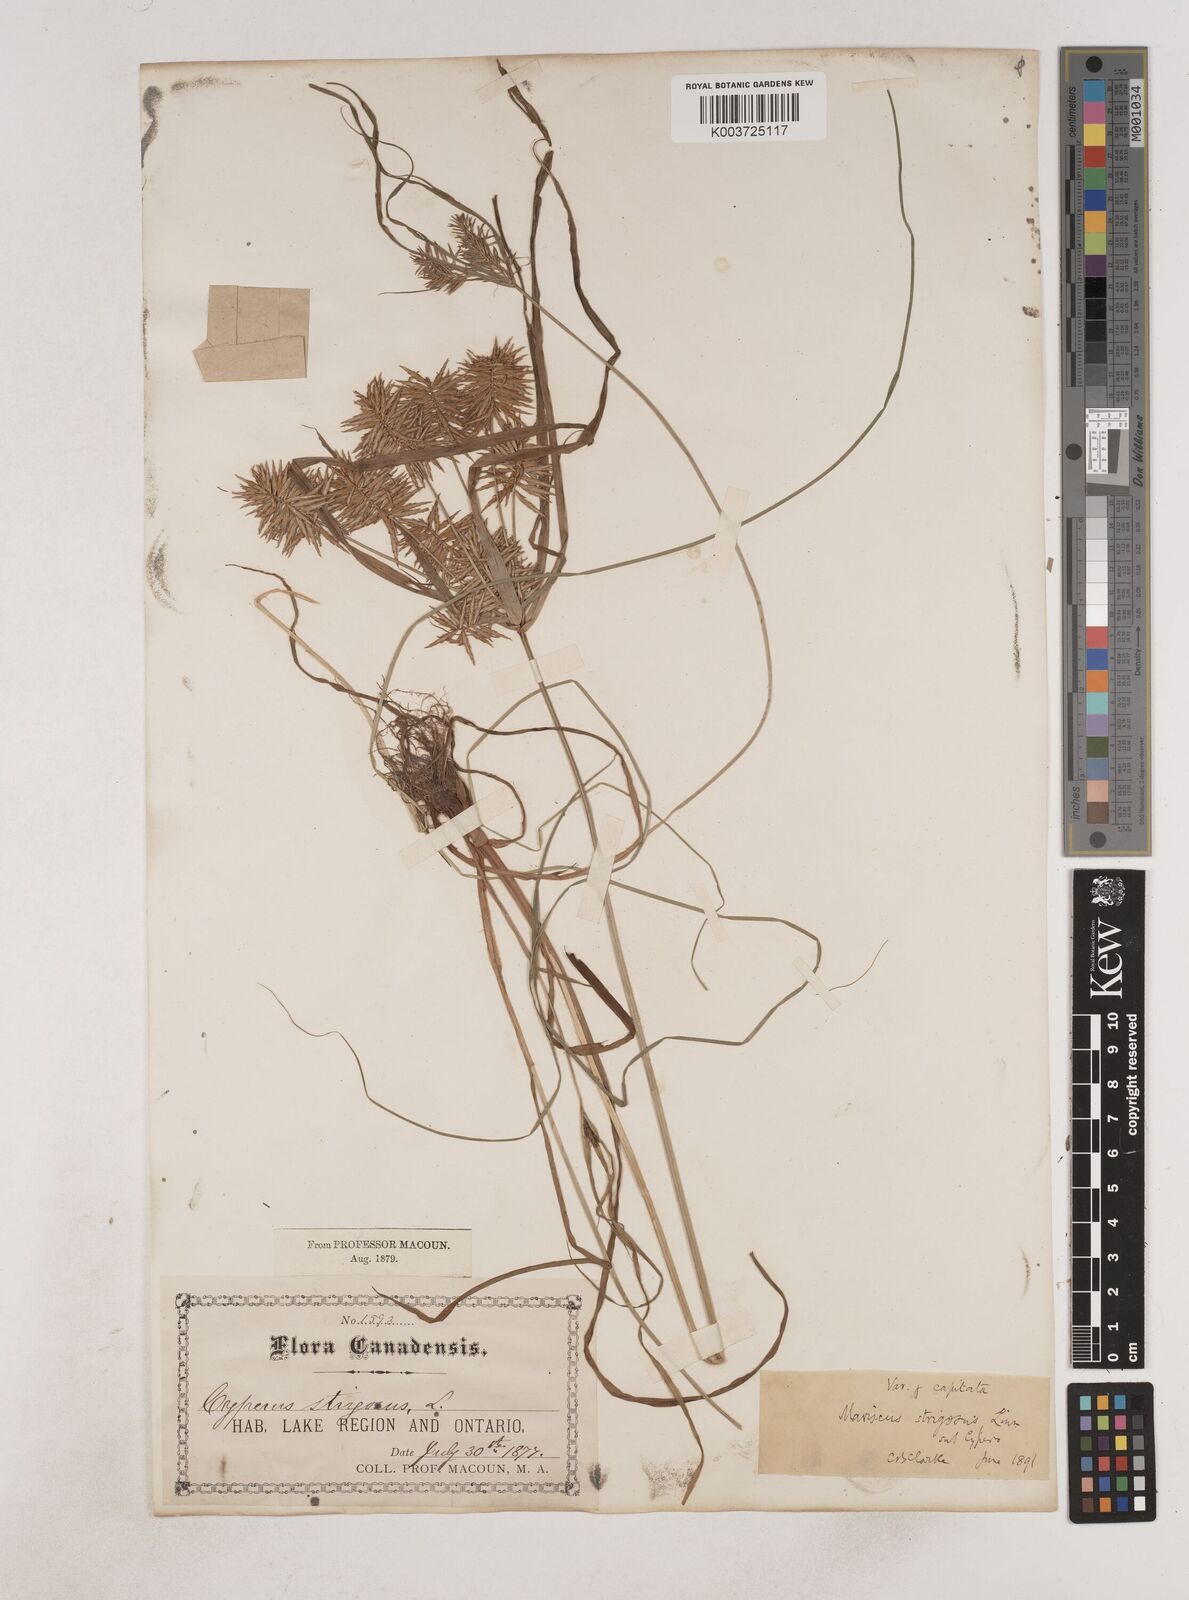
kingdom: Plantae
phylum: Tracheophyta
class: Liliopsida
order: Poales
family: Cyperaceae
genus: Cyperus
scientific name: Cyperus strigosus
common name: False nutsedge
